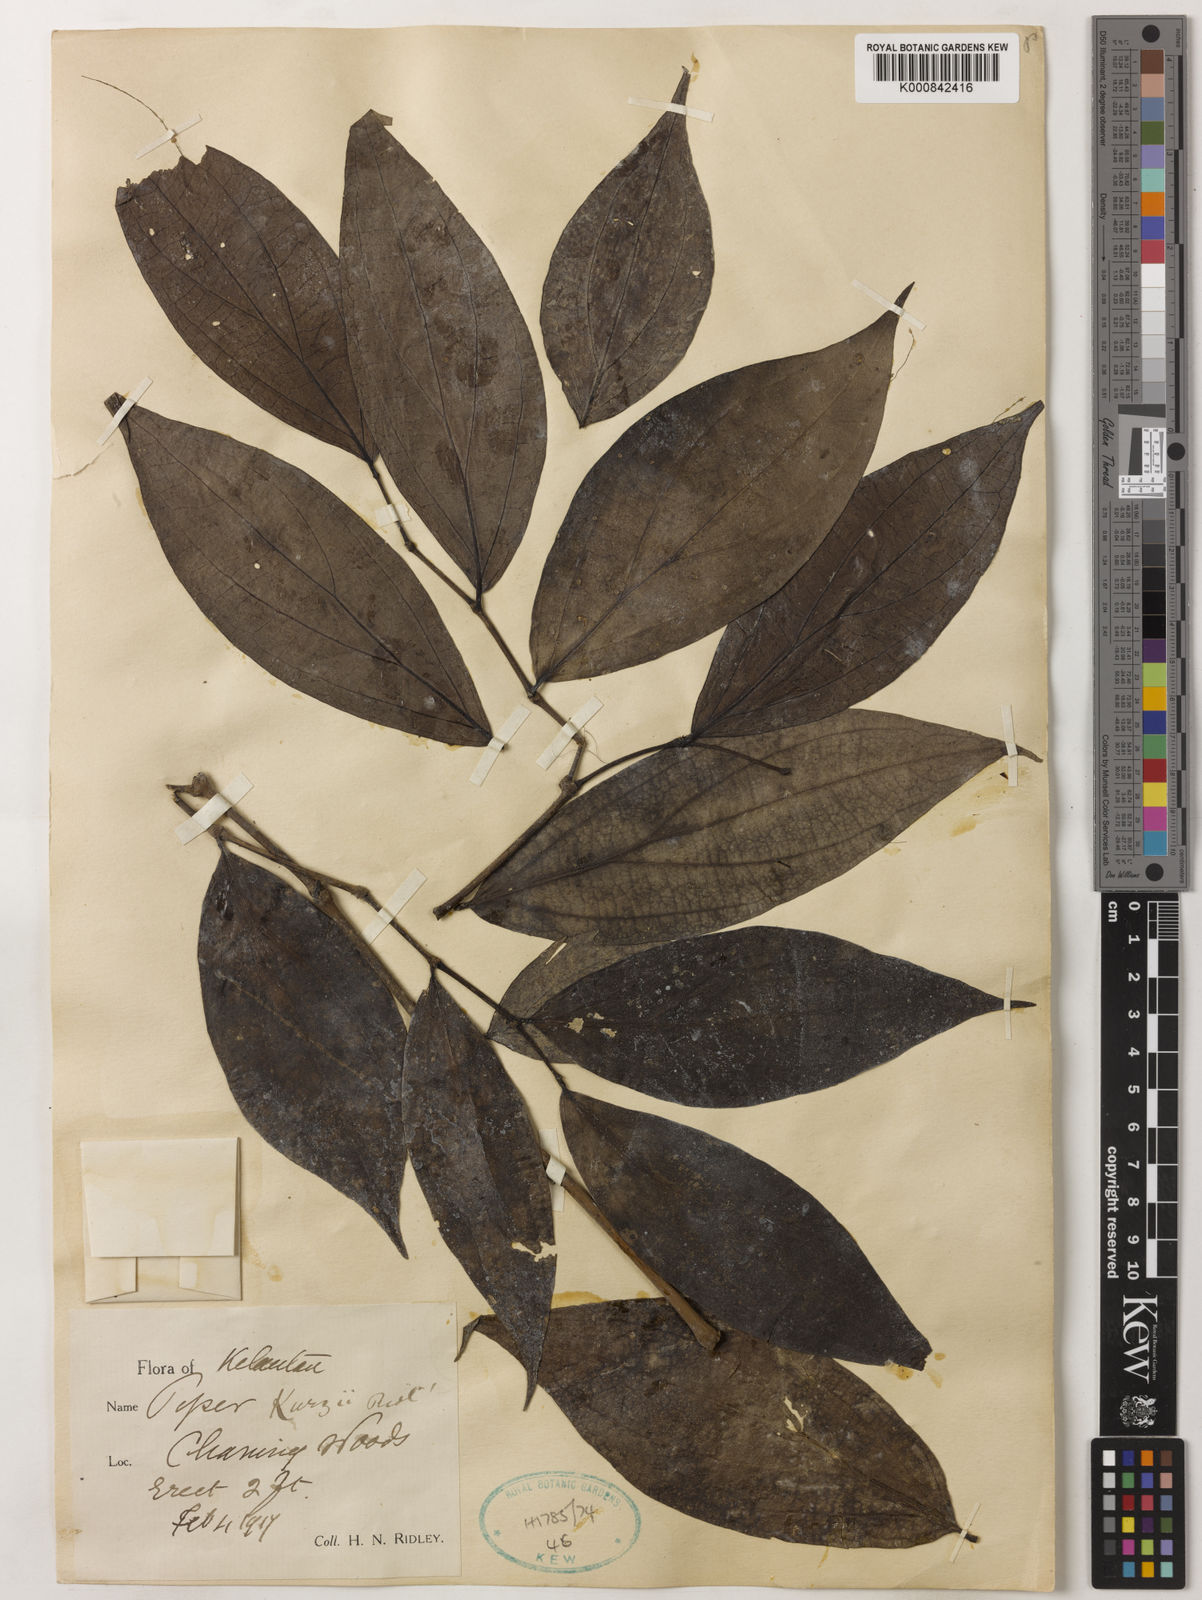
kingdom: Plantae
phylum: Tracheophyta
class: Magnoliopsida
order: Piperales
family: Piperaceae
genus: Piper
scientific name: Piper kurzii
